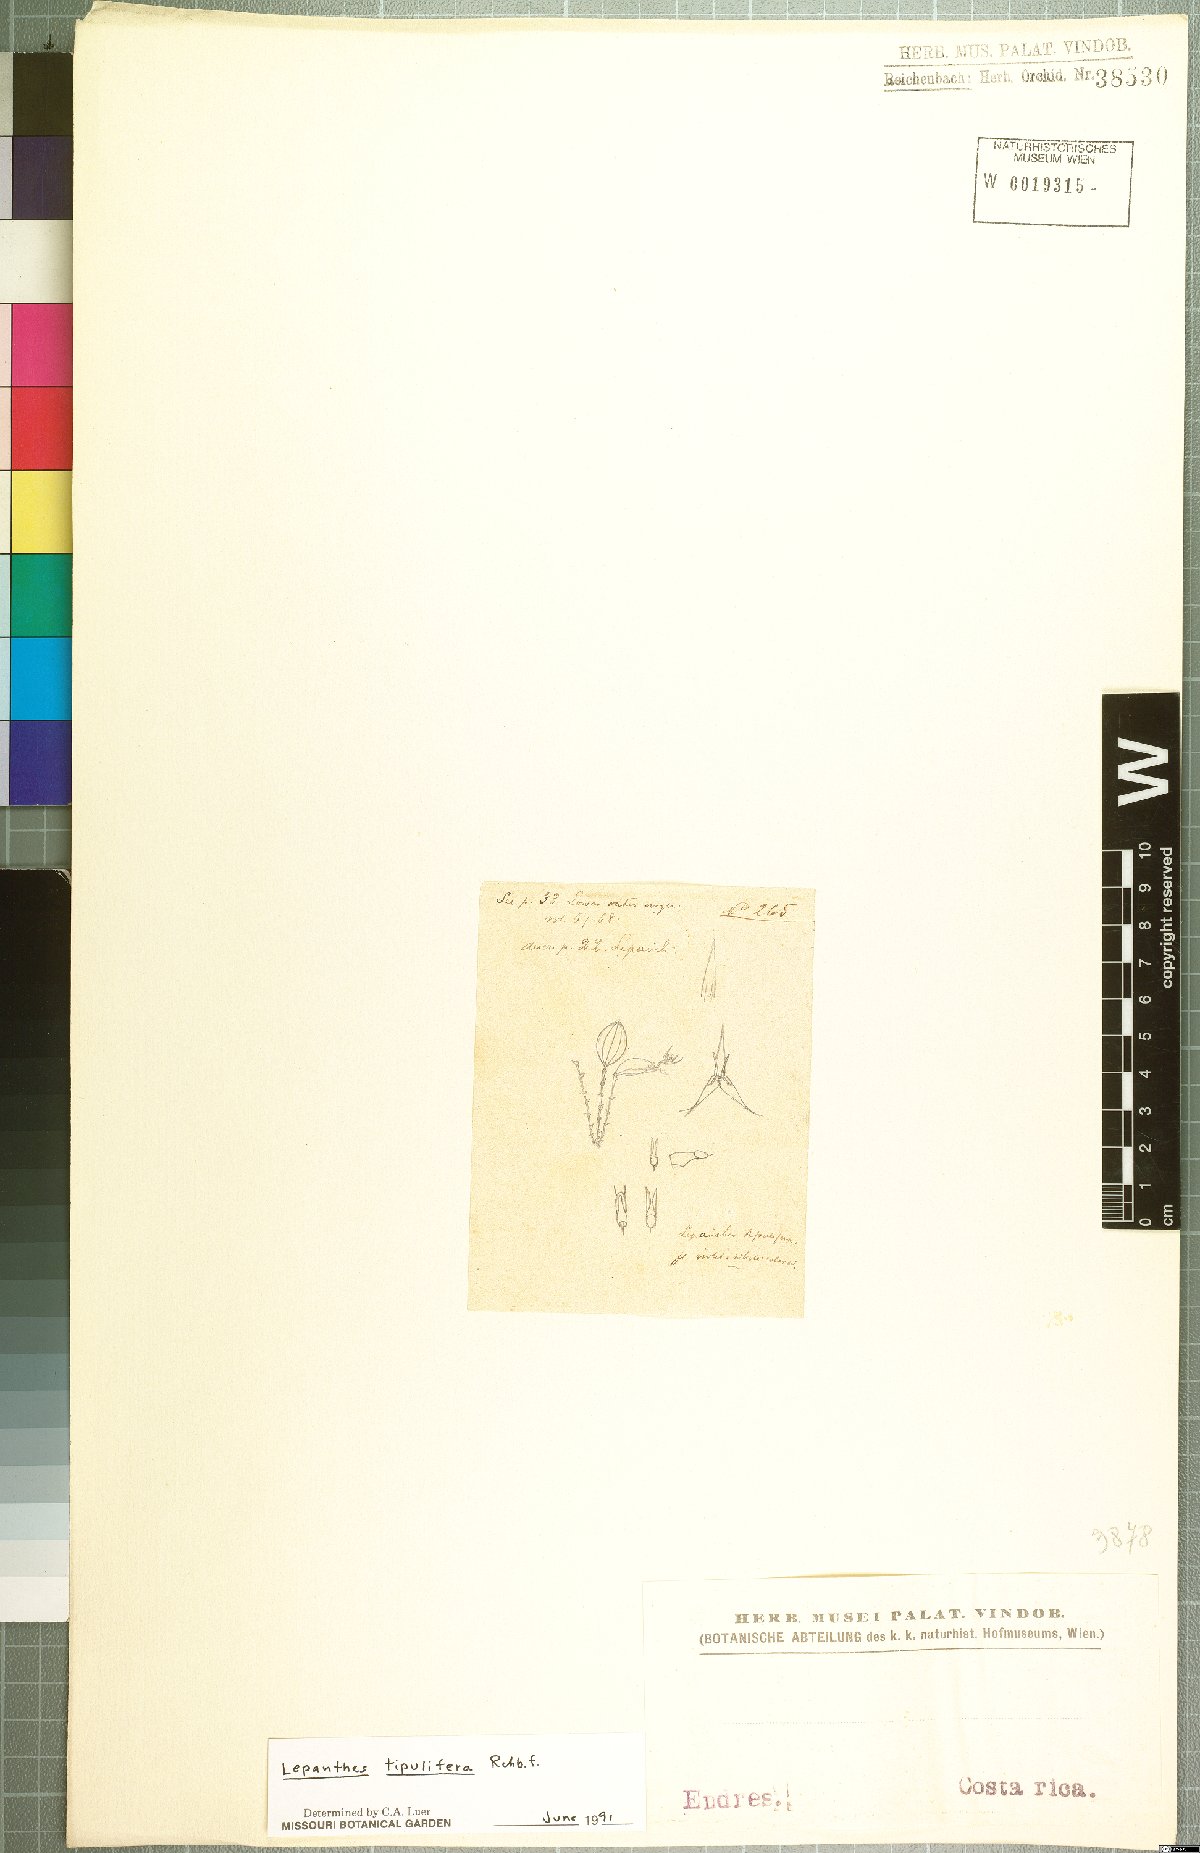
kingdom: Plantae
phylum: Tracheophyta
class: Liliopsida
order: Asparagales
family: Orchidaceae
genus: Lepanthes
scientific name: Lepanthes tipulifera
